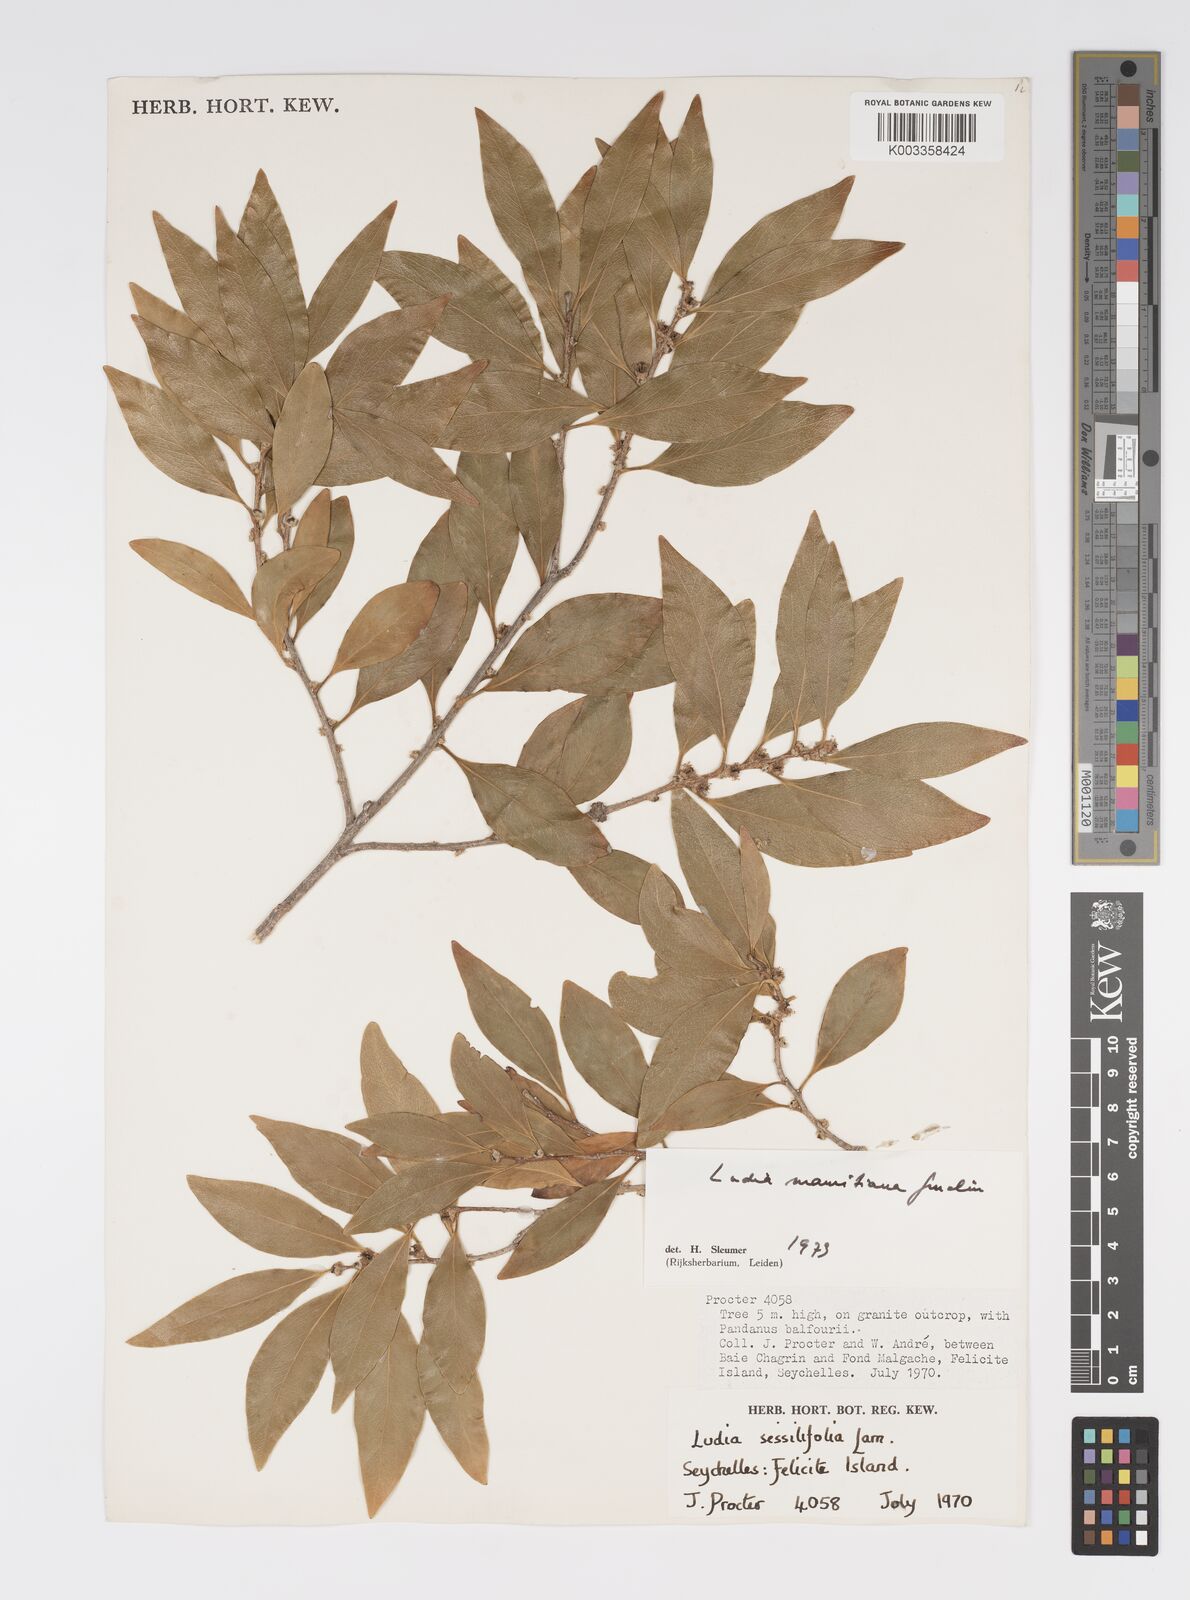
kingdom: Plantae
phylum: Tracheophyta
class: Magnoliopsida
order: Malpighiales
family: Salicaceae
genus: Ludia
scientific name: Ludia mauritiana
